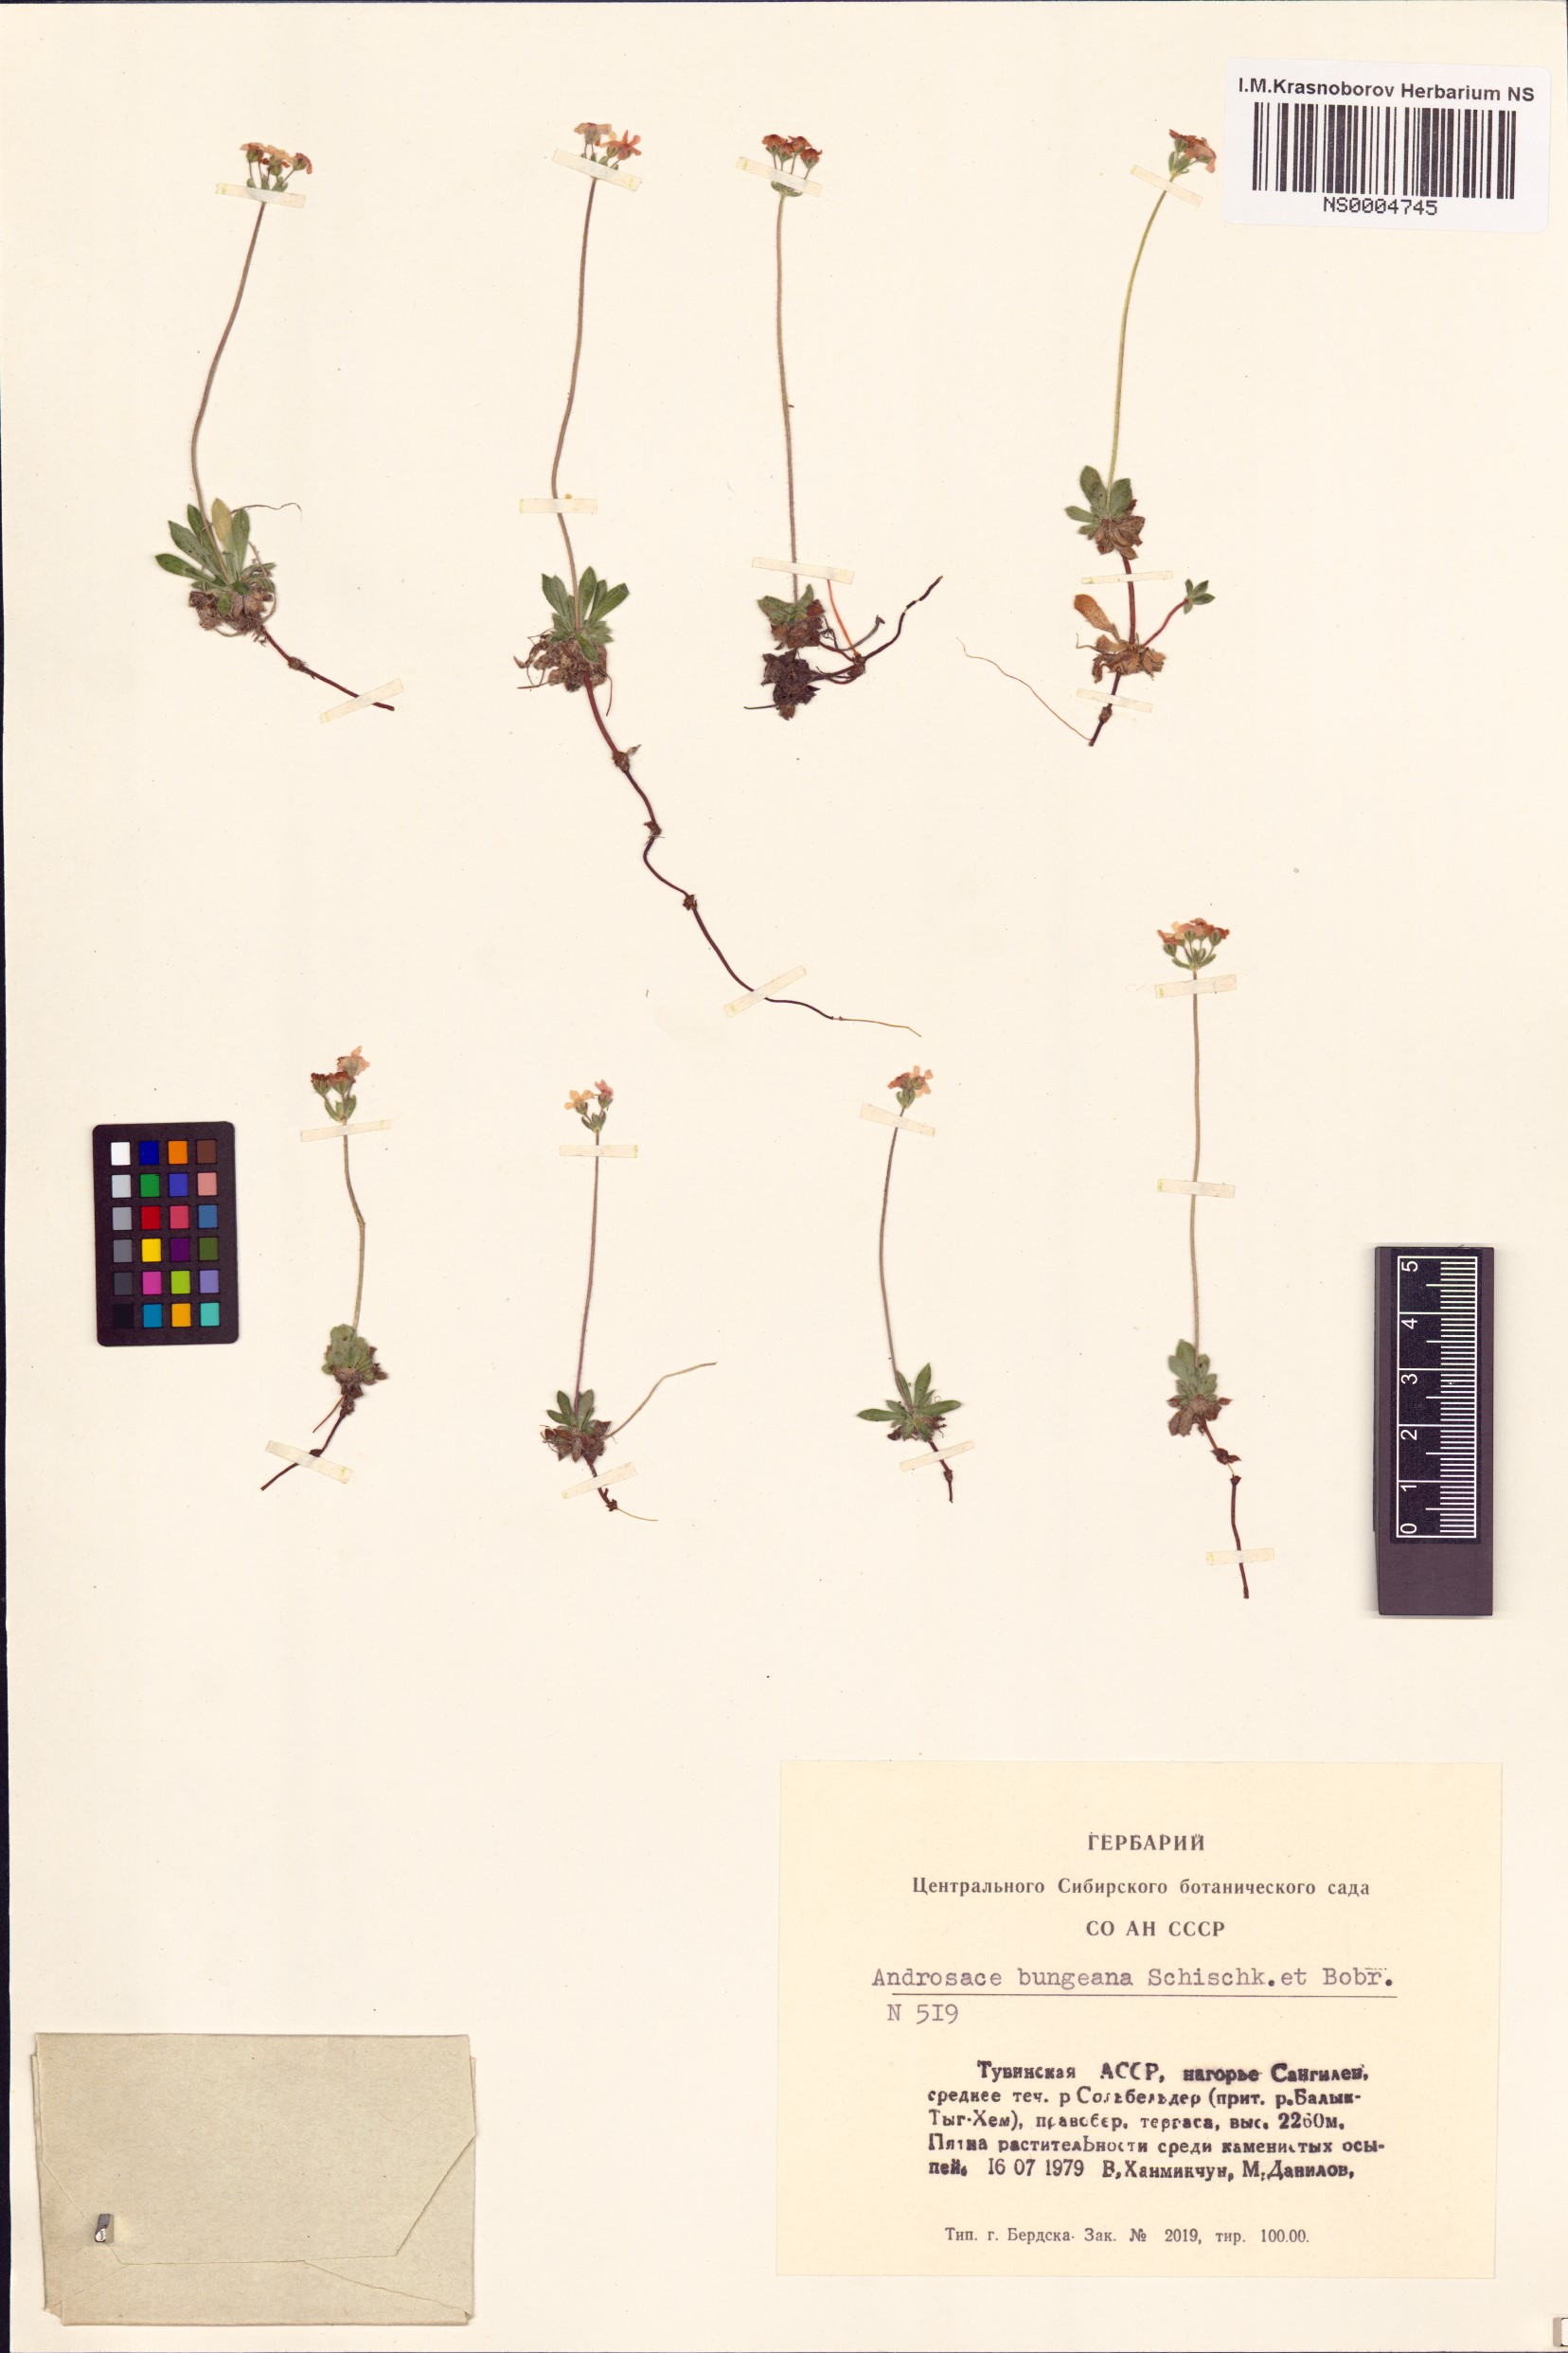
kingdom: Plantae
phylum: Tracheophyta
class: Magnoliopsida
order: Ericales
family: Primulaceae
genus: Androsace
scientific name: Androsace bungeana
